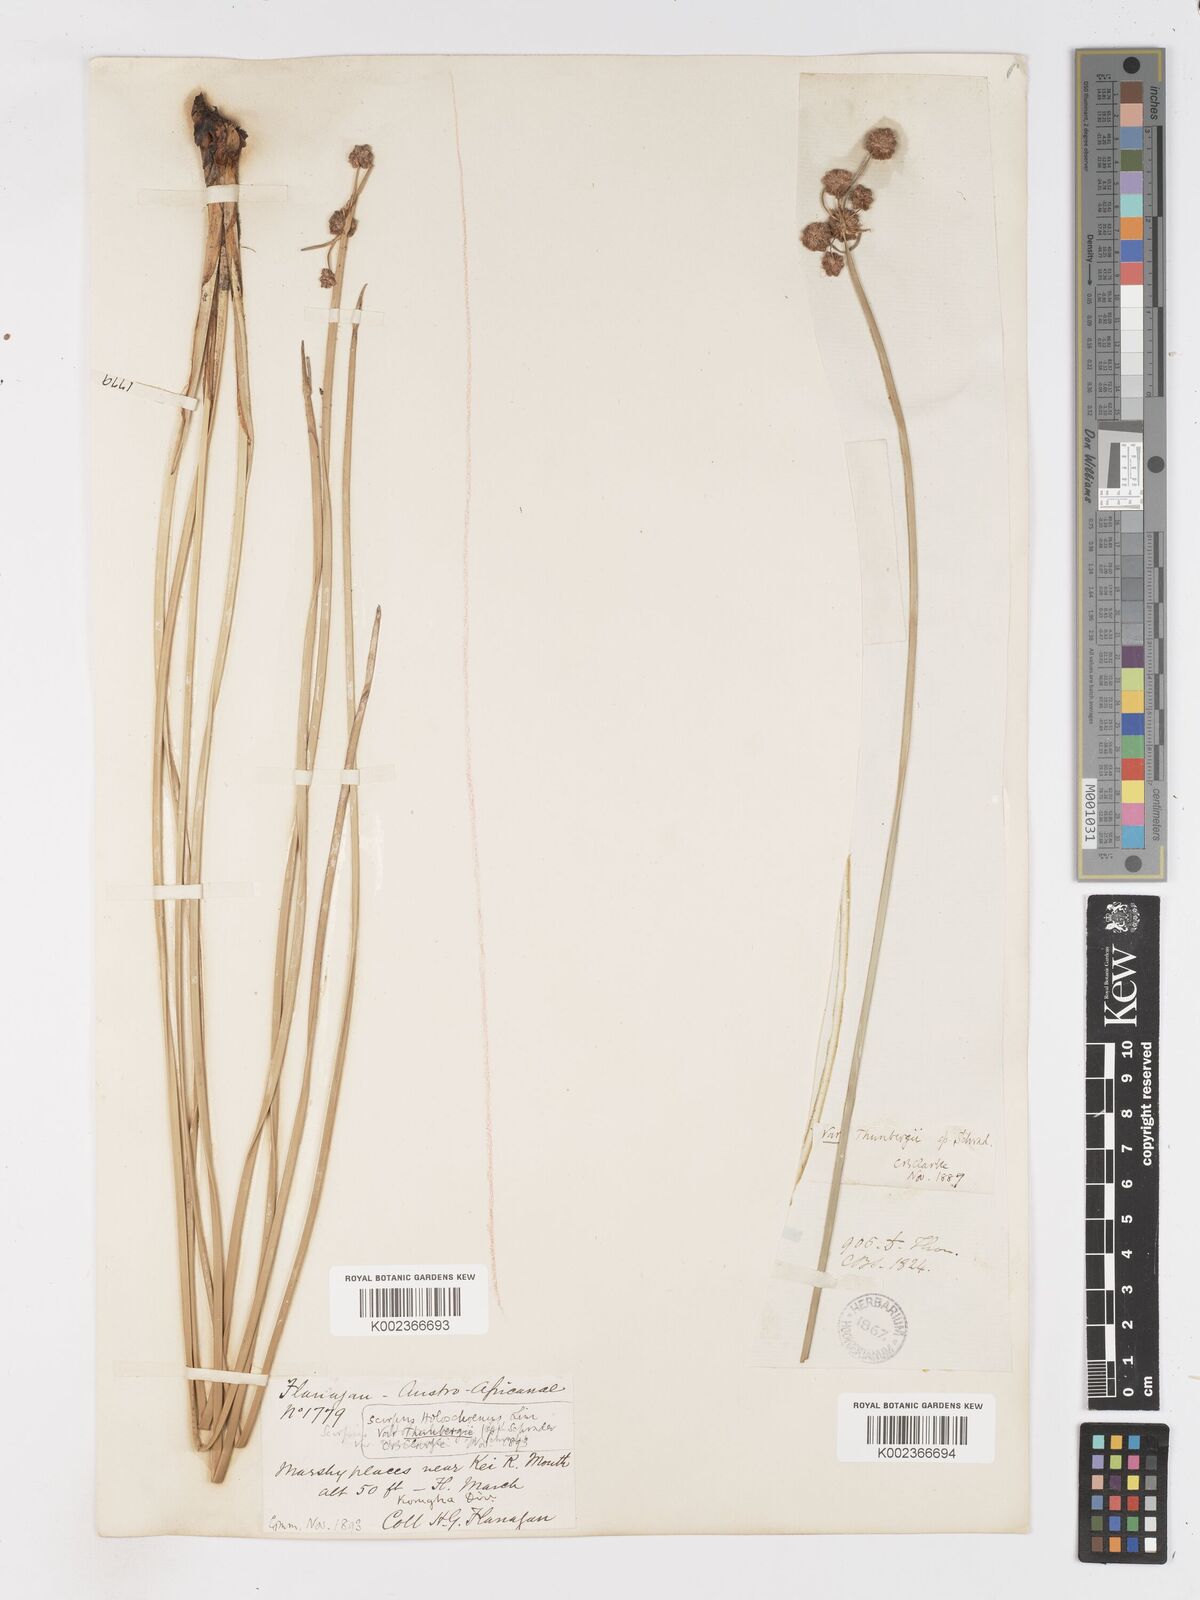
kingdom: Plantae
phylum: Tracheophyta
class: Liliopsida
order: Poales
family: Cyperaceae
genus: Scirpoides
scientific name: Scirpoides holoschoenus
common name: Round-headed club-rush
